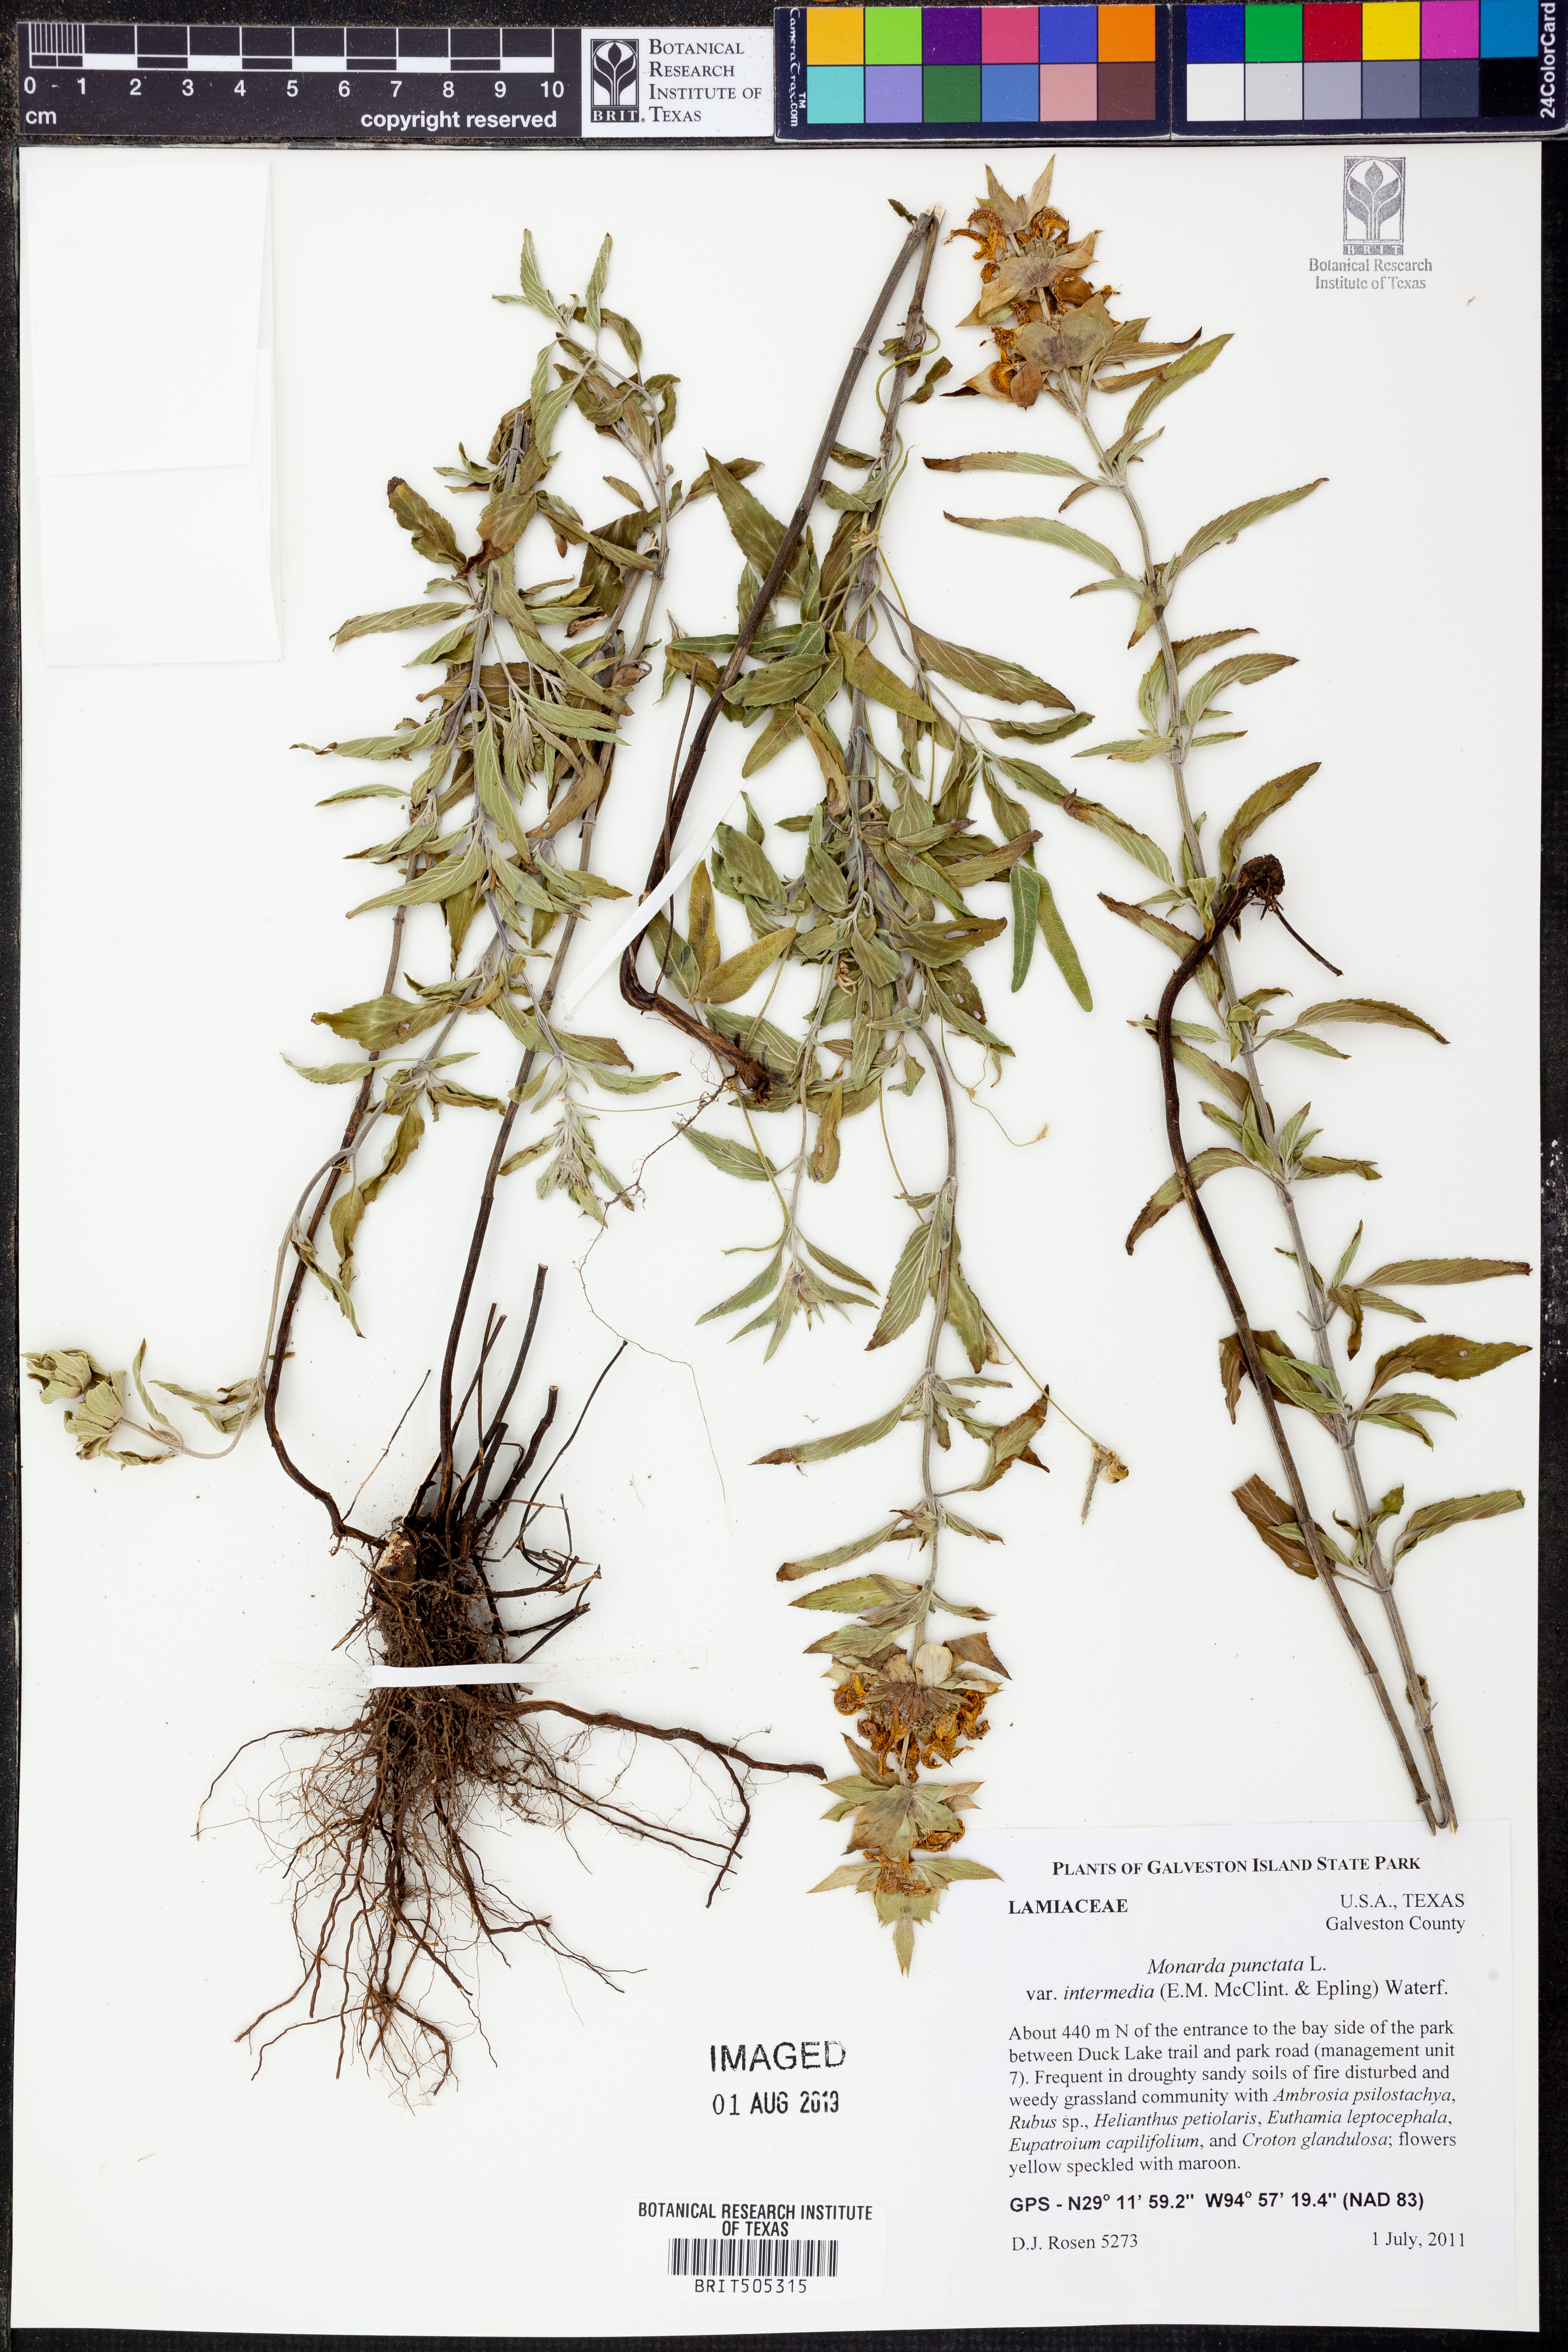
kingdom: Plantae
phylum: Tracheophyta
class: Magnoliopsida
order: Lamiales
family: Lamiaceae
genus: Monarda
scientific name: Monarda punctata
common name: Dotted monarda
